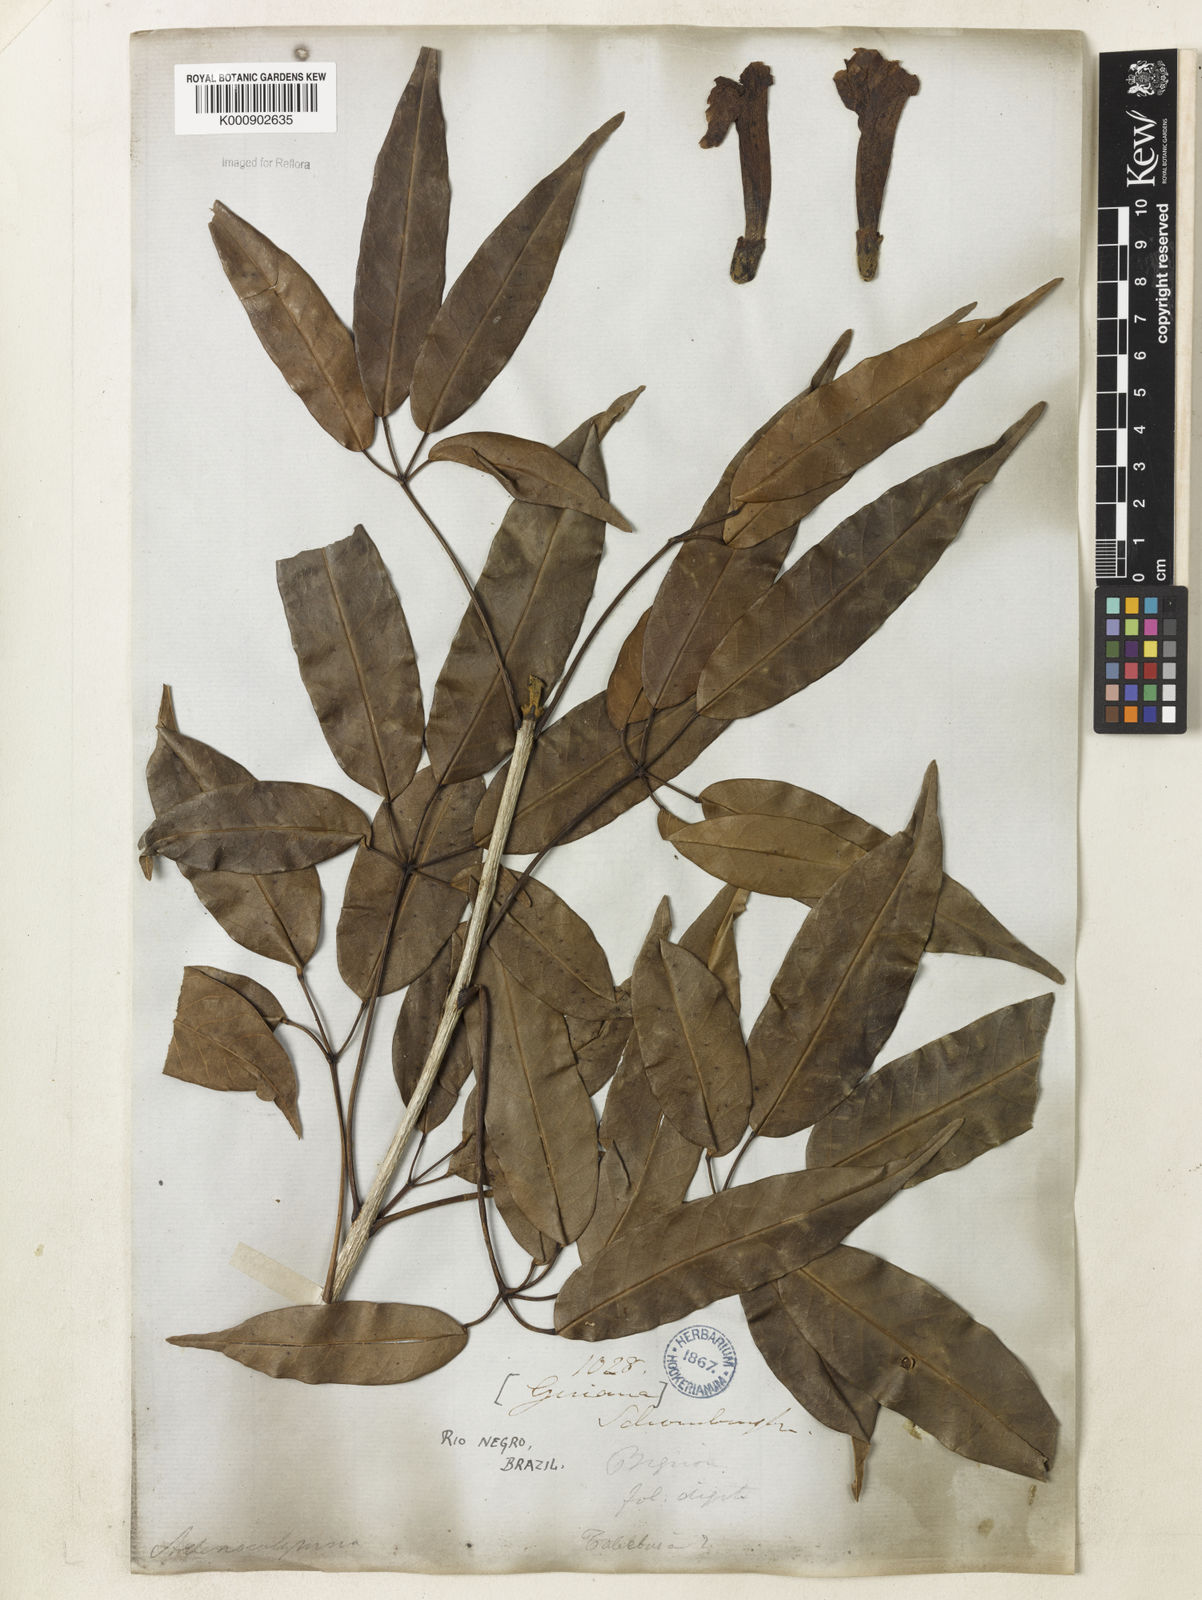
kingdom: Plantae
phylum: Tracheophyta
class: Magnoliopsida
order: Lamiales
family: Bignoniaceae
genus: Handroanthus
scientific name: Handroanthus barbatus
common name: Trumpet trees
